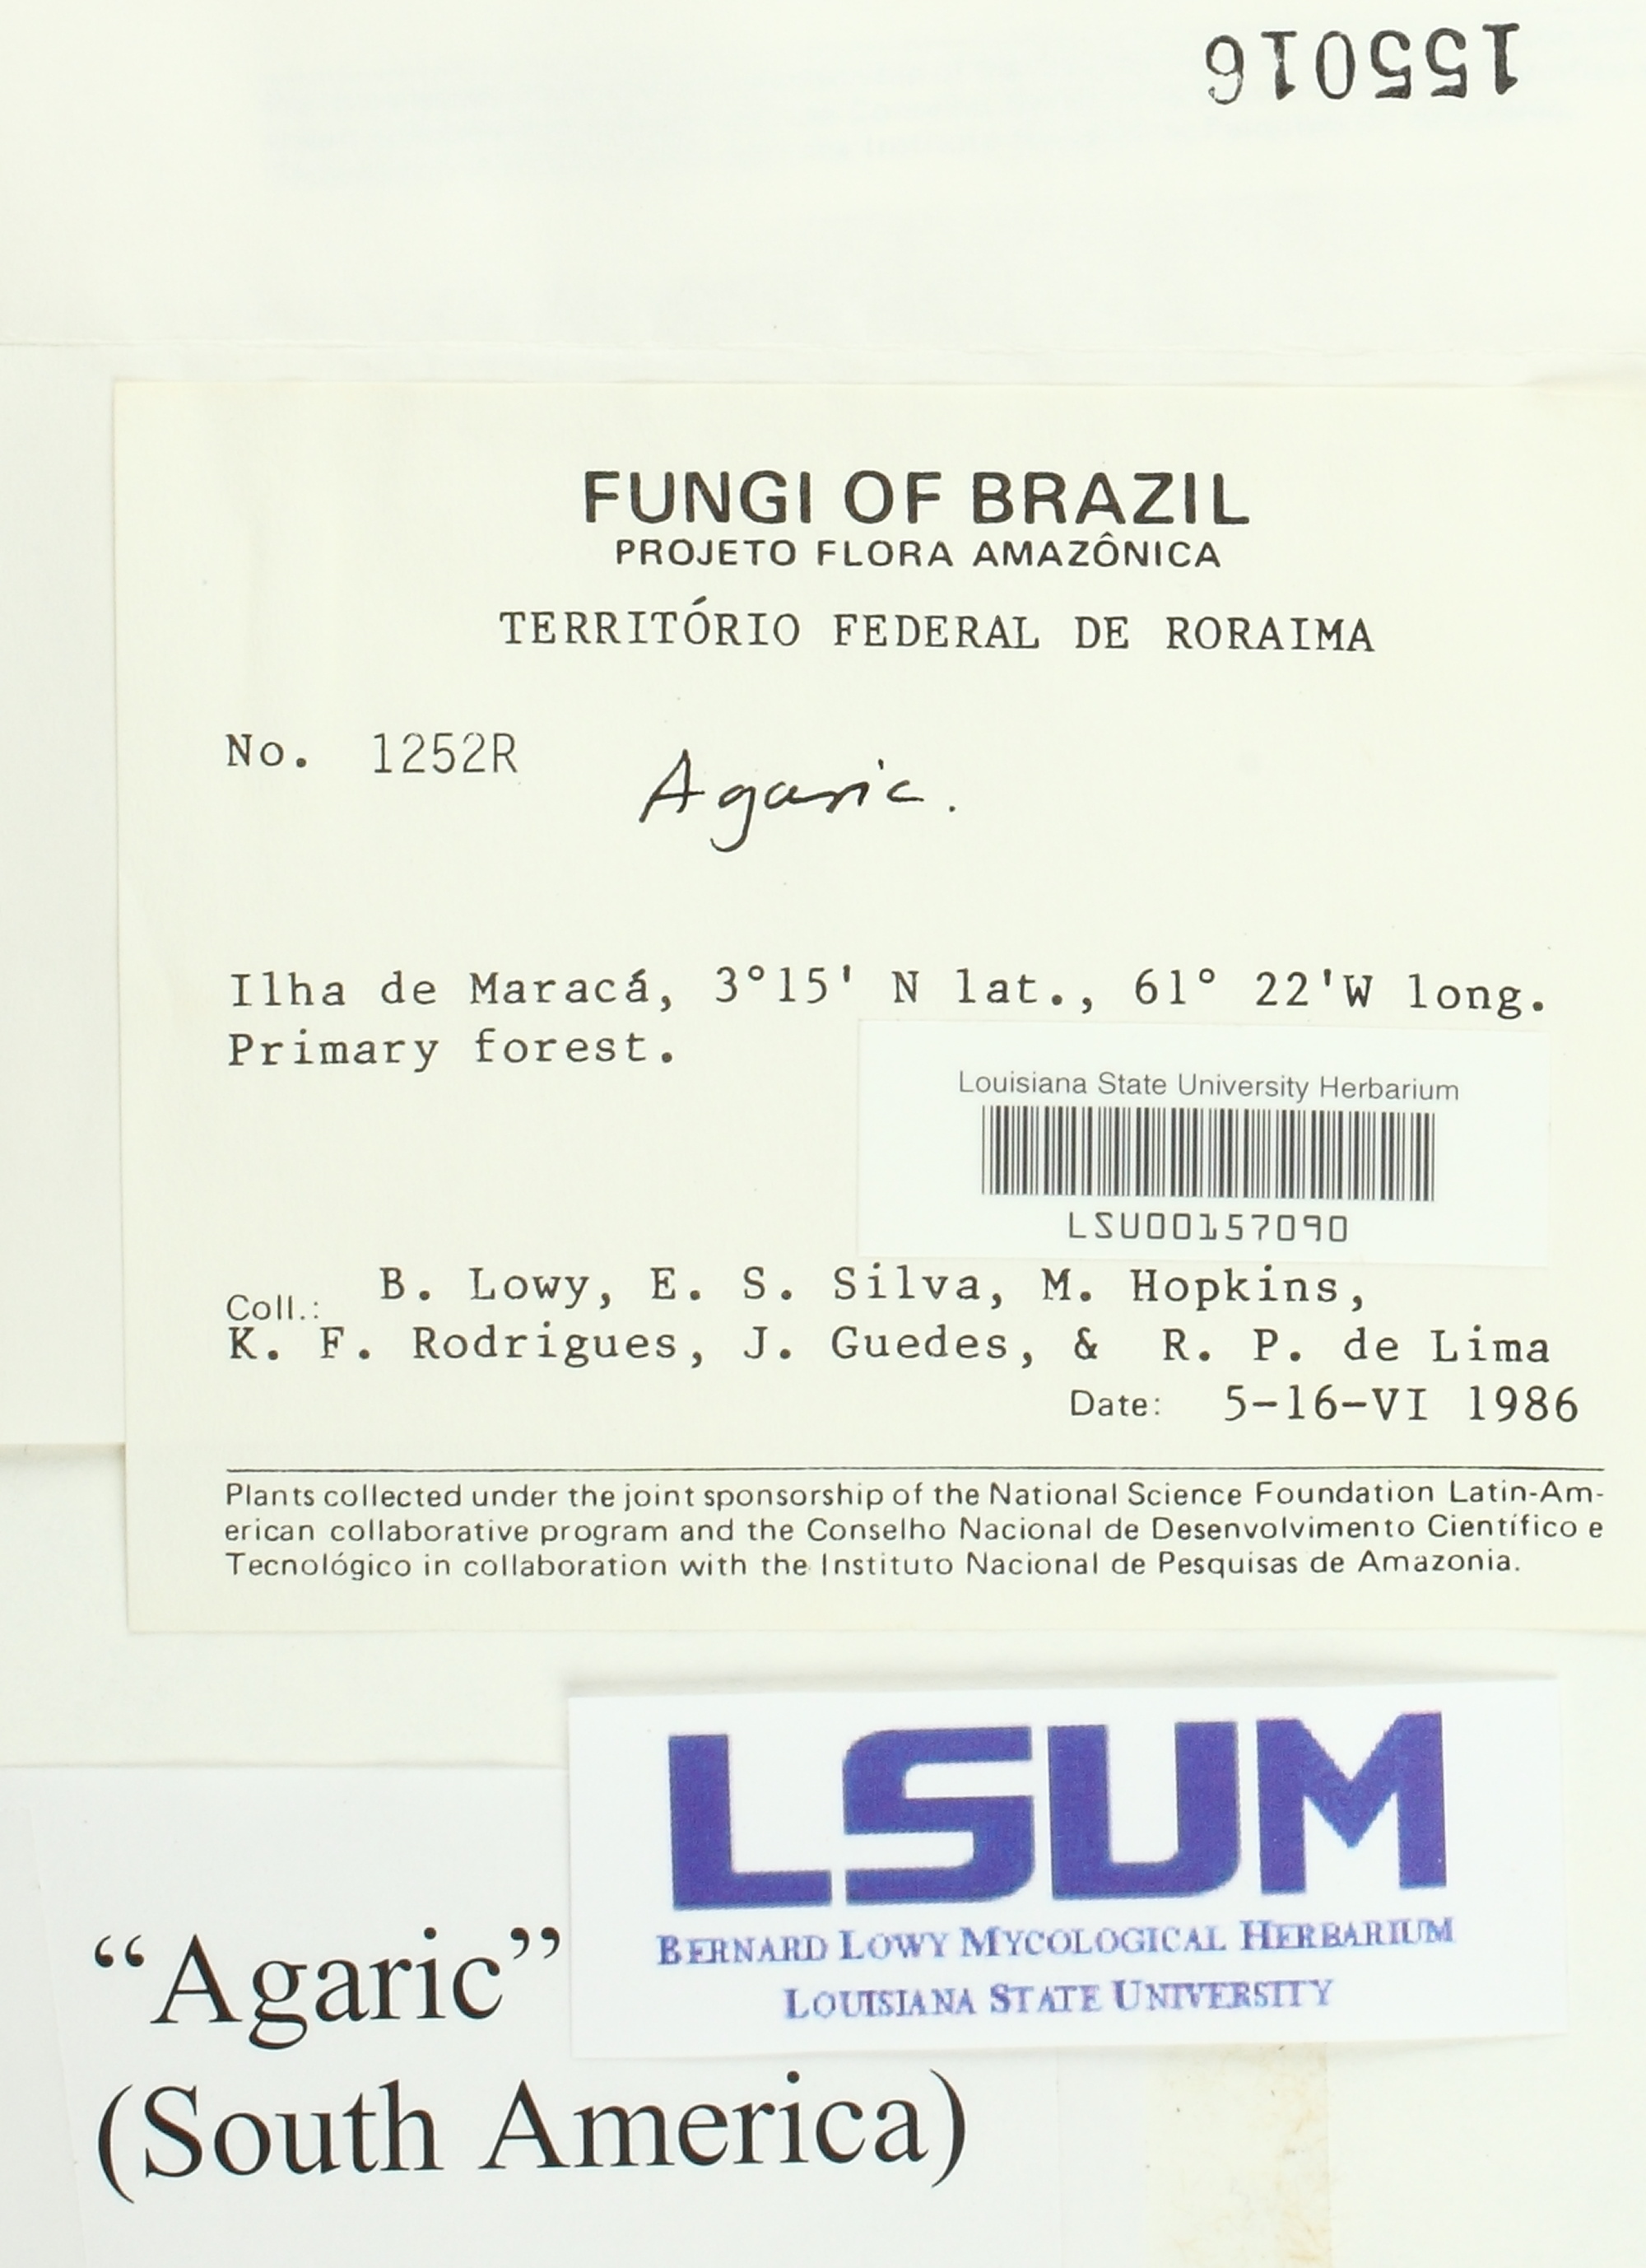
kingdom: Fungi
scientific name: Fungi
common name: Fungi
